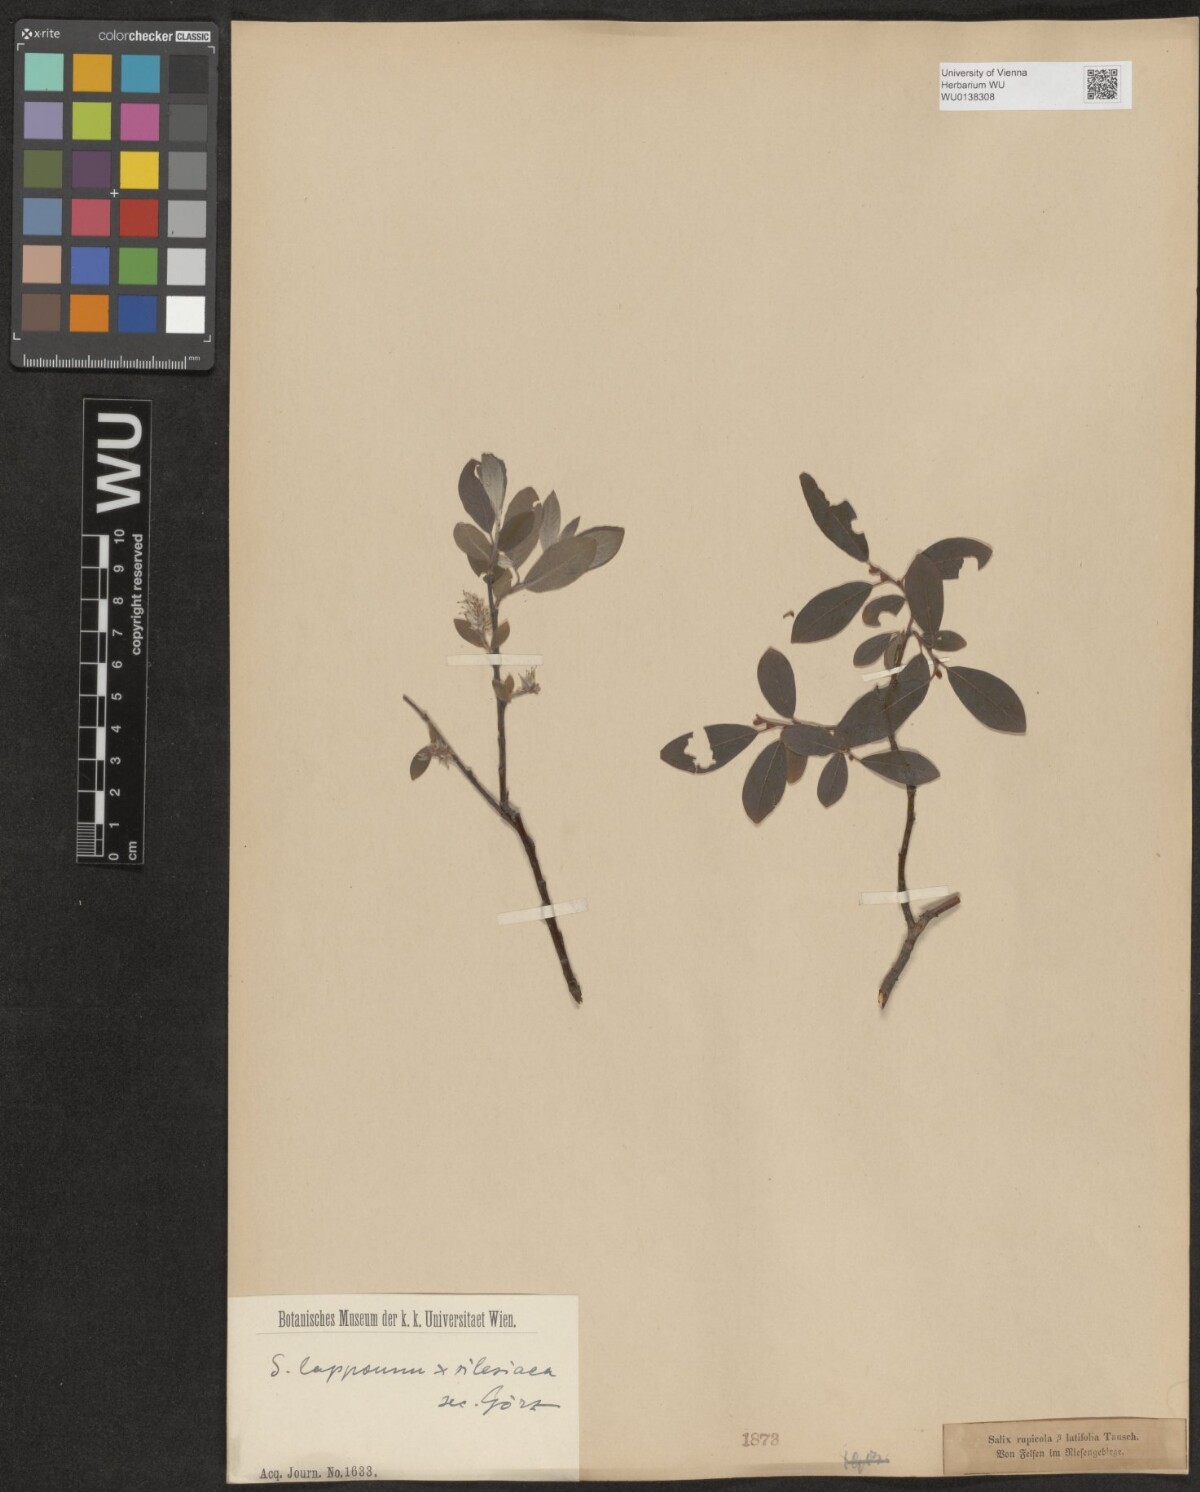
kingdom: Plantae
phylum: Tracheophyta
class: Magnoliopsida
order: Malpighiales
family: Salicaceae
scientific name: Salicaceae
